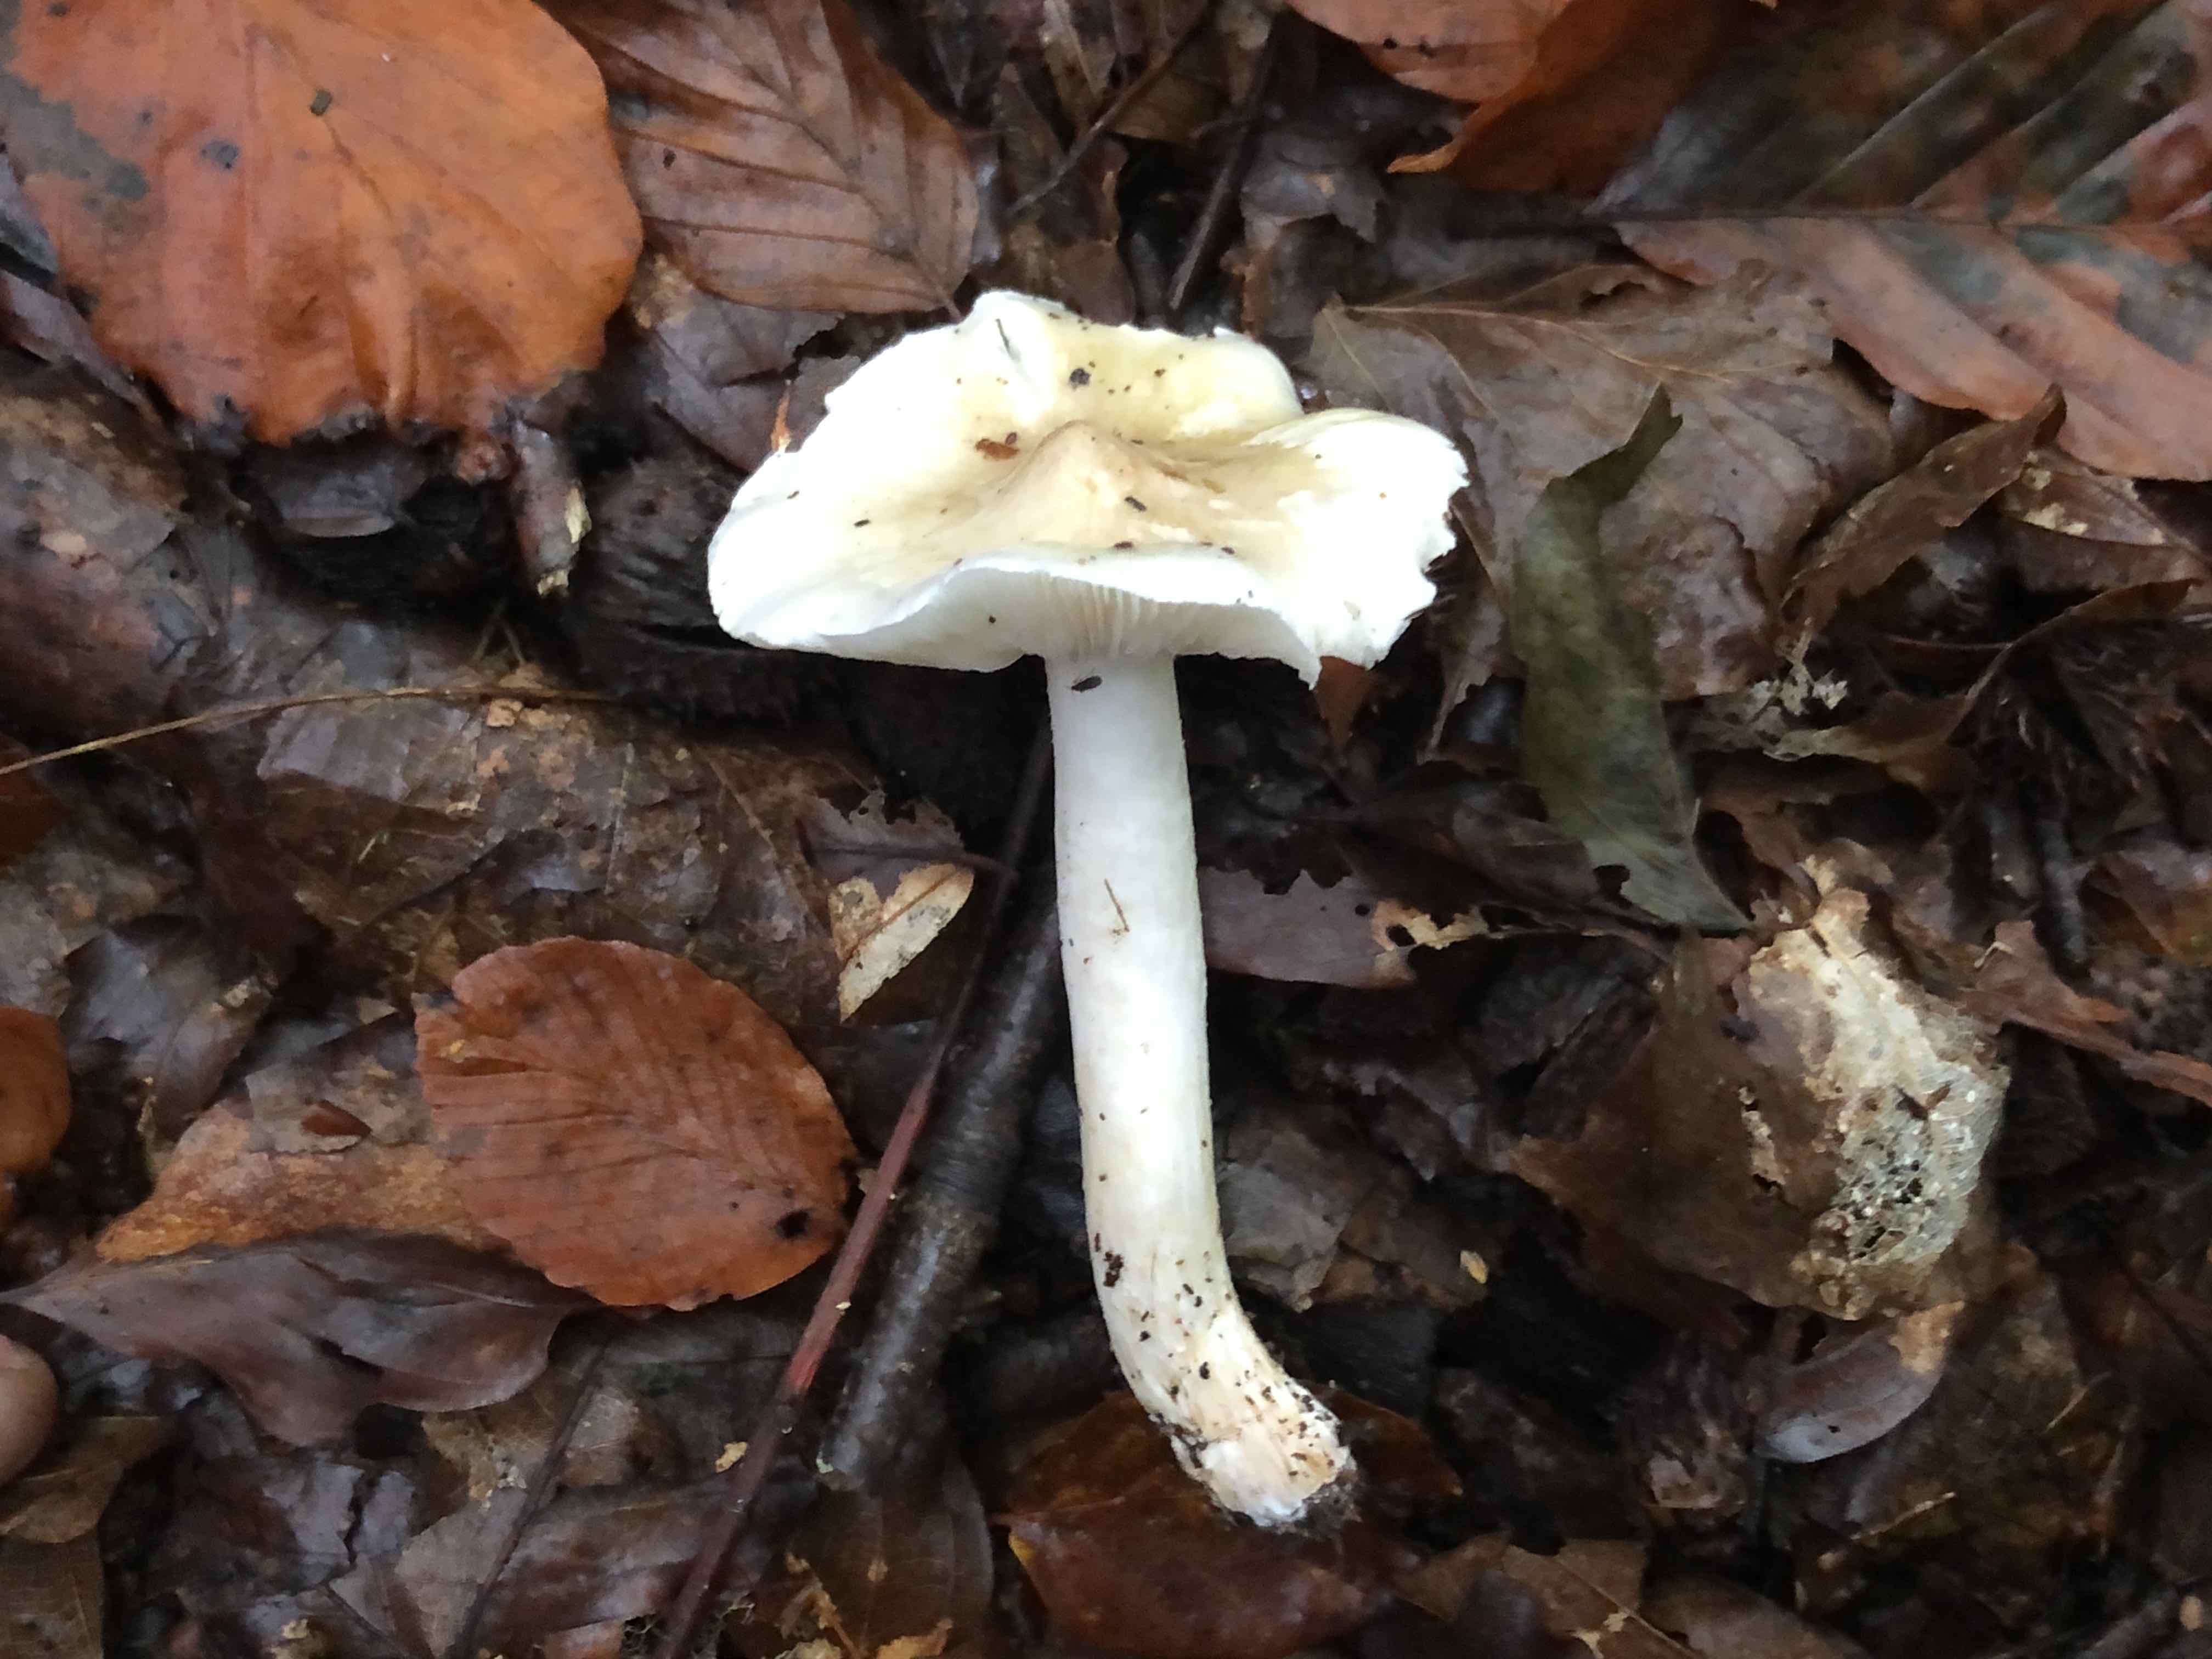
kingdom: Fungi
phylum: Basidiomycota
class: Agaricomycetes
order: Agaricales
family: Tricholomataceae
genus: Tricholoma
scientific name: Tricholoma umbonatum
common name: puklet ridderhat
